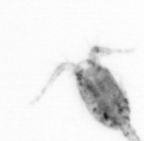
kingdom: Animalia
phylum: Arthropoda
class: Copepoda
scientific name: Copepoda
